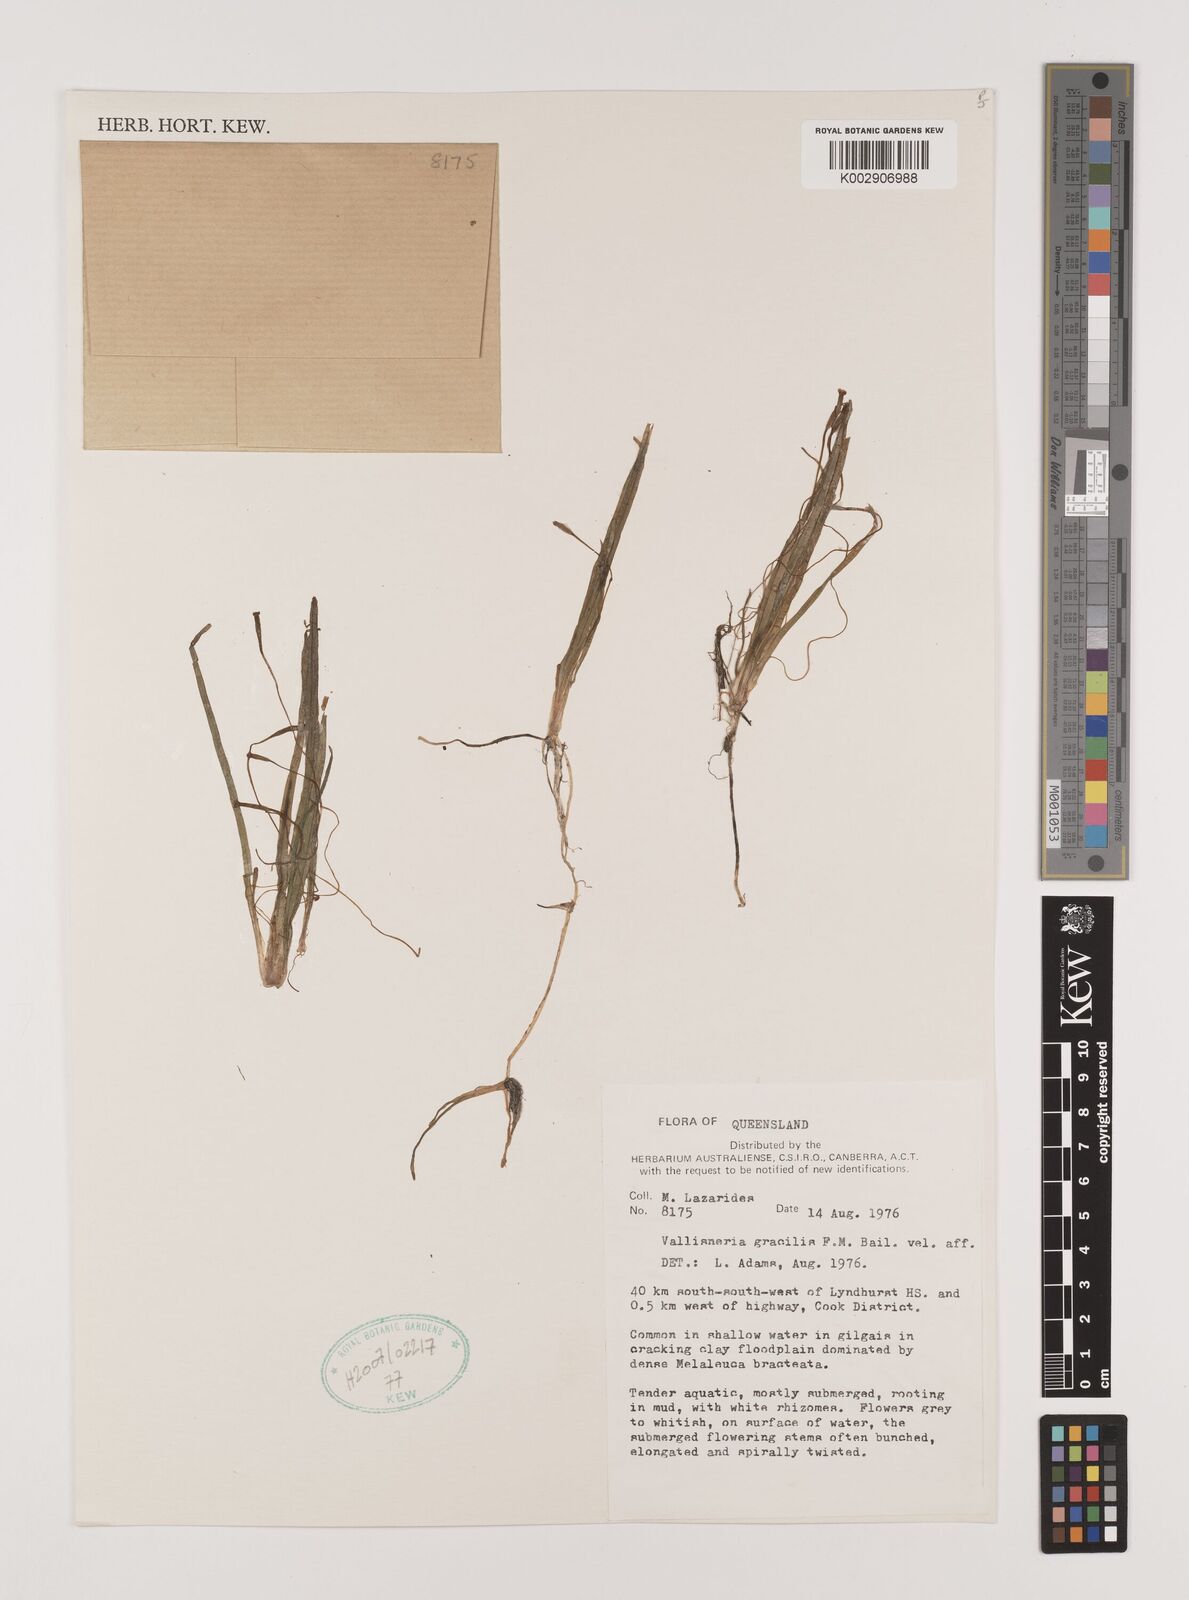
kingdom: Plantae
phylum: Tracheophyta
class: Liliopsida
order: Alismatales
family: Hydrocharitaceae
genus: Vallisneria
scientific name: Vallisneria nana
